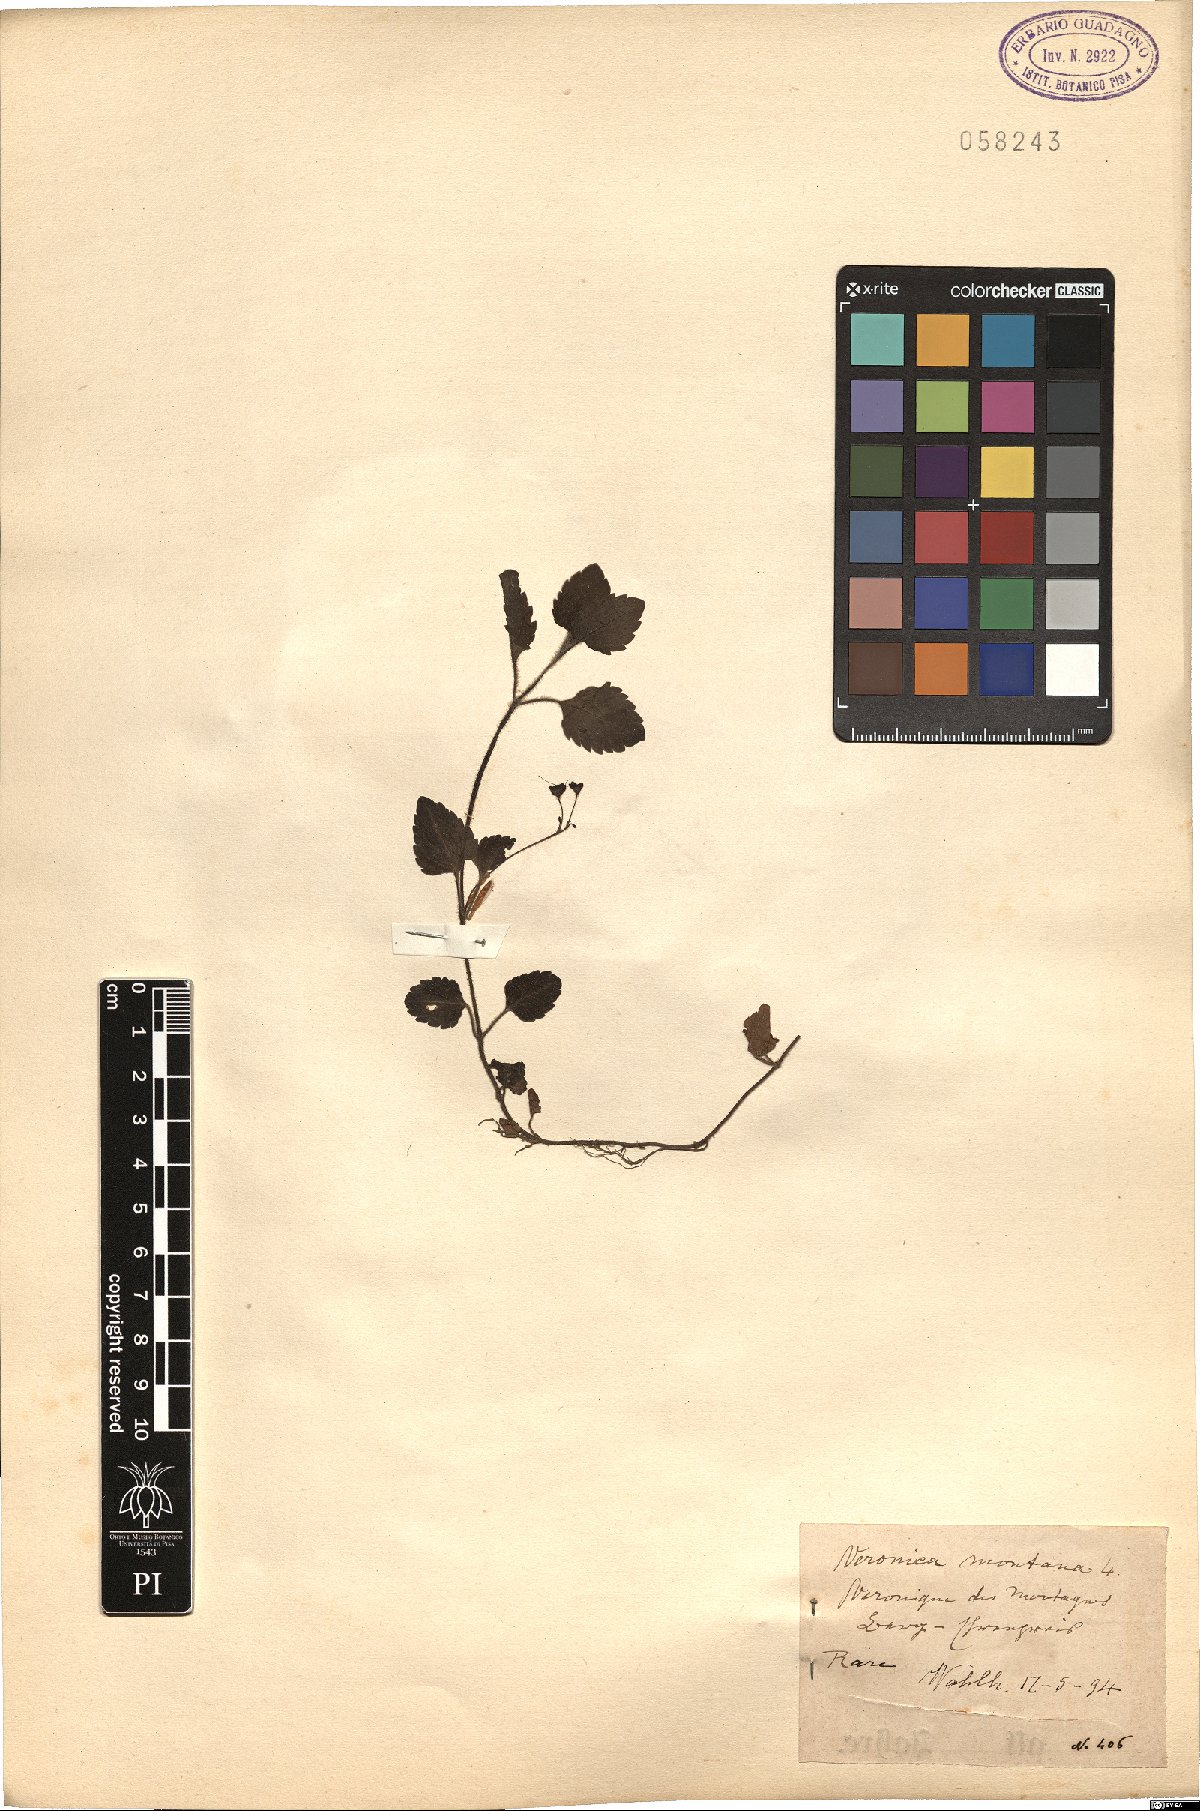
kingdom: Plantae
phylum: Tracheophyta
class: Magnoliopsida
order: Lamiales
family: Plantaginaceae
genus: Veronica
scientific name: Veronica montana
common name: Wood speedwell
